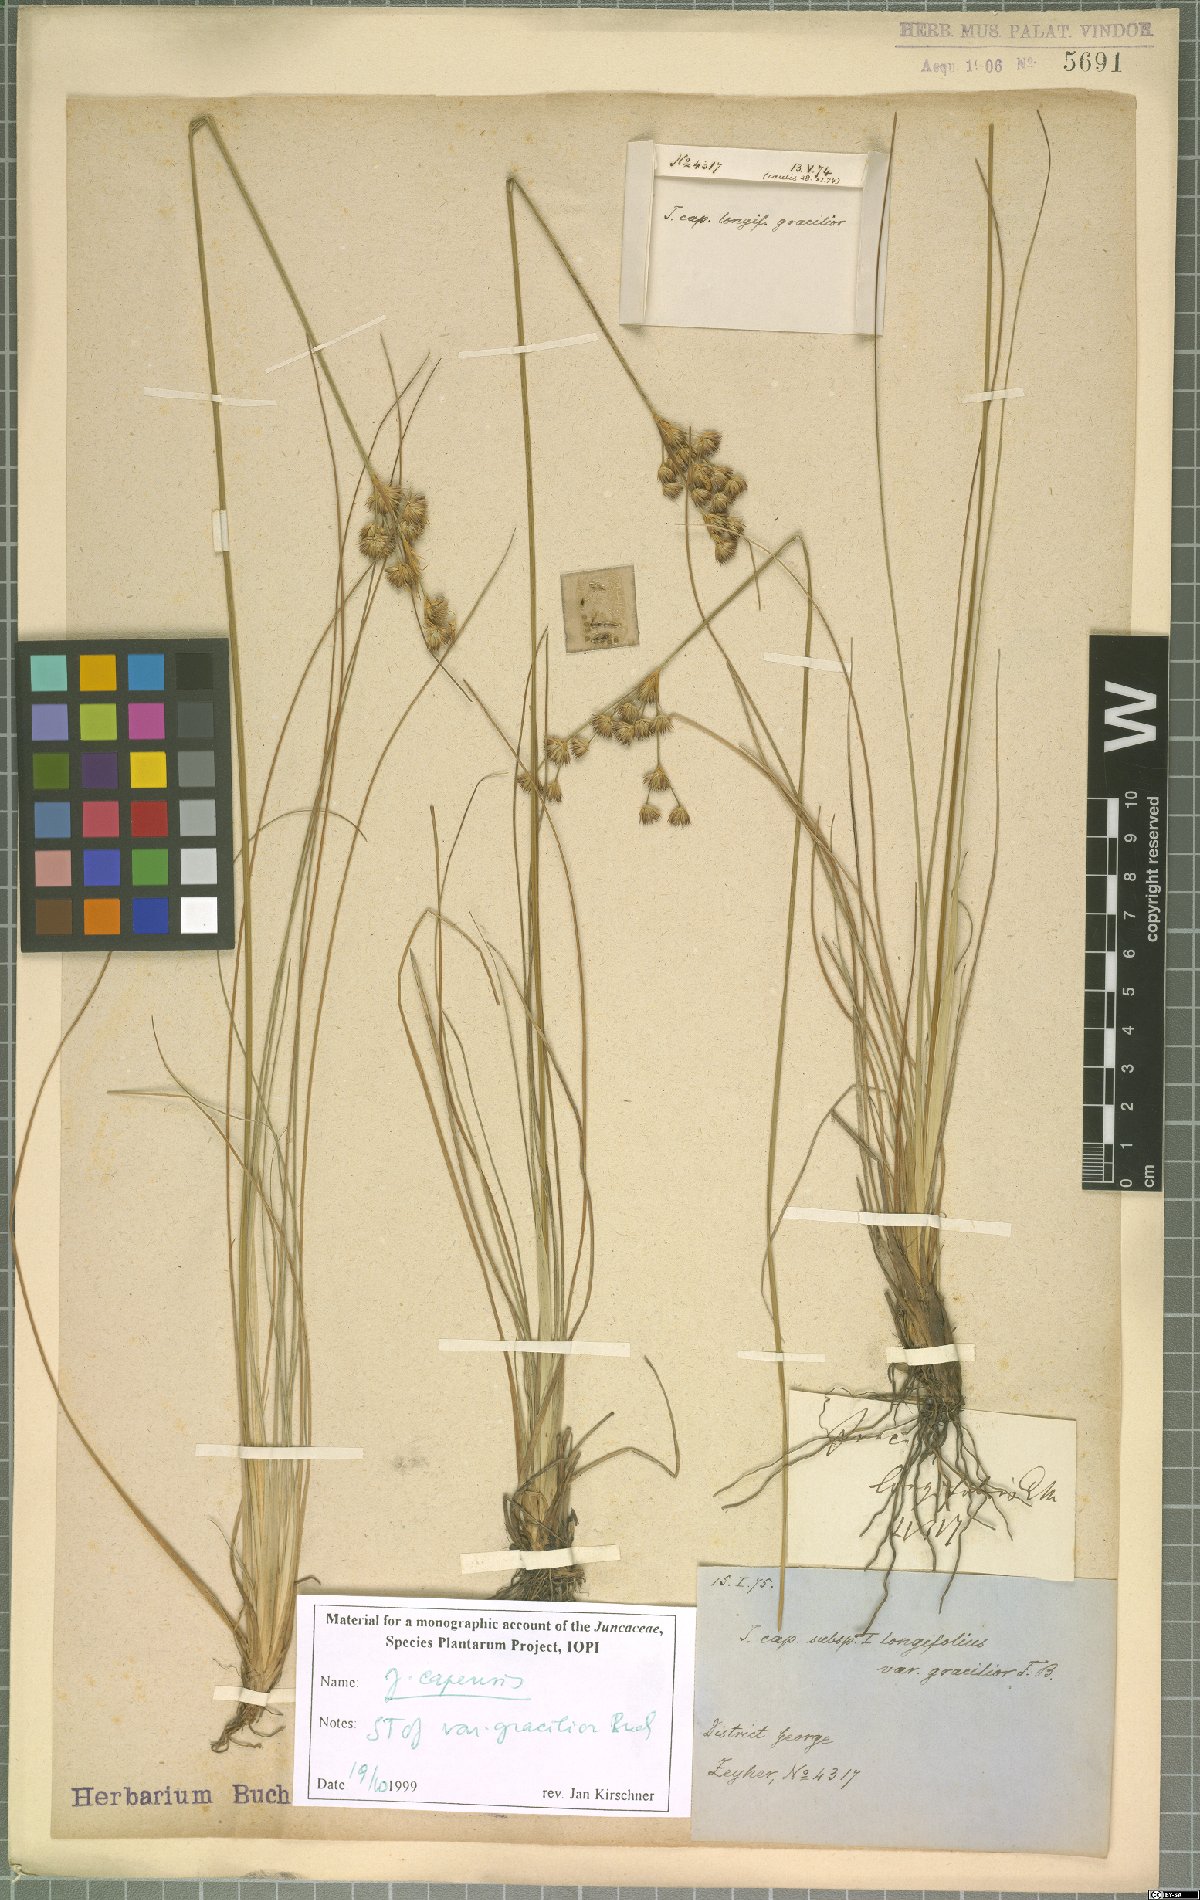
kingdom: Plantae
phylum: Tracheophyta
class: Liliopsida
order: Poales
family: Juncaceae
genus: Juncus
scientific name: Juncus capensis
